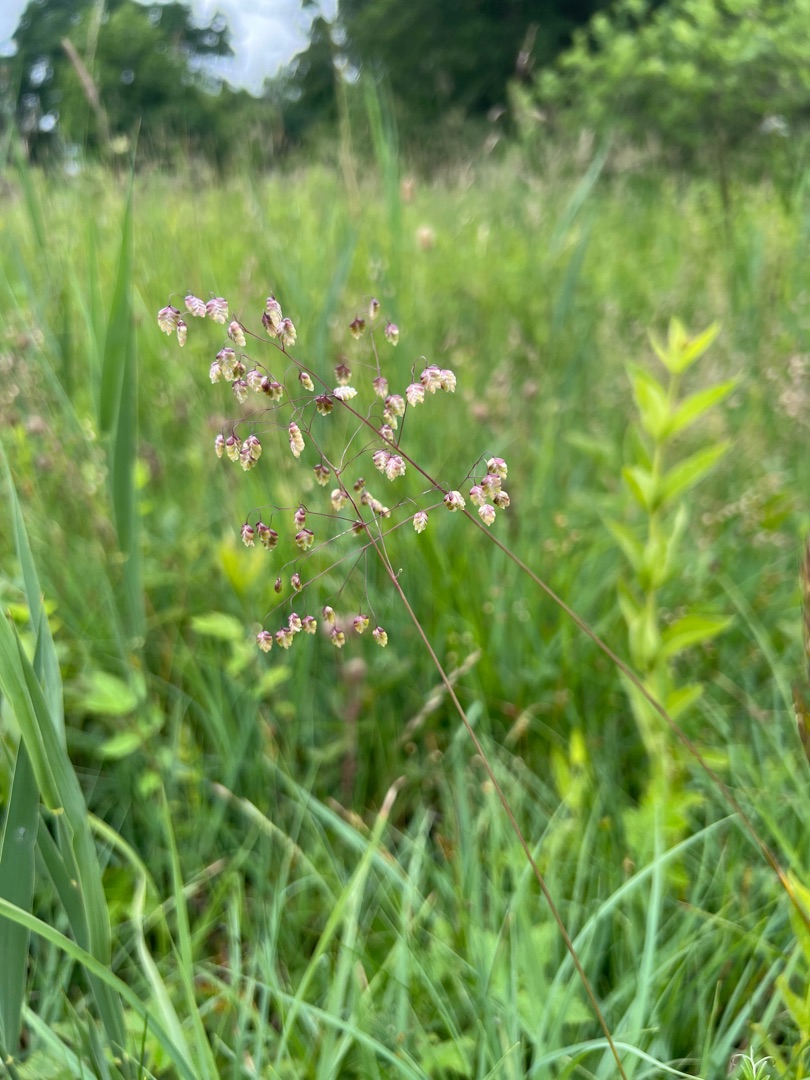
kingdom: Plantae
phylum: Tracheophyta
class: Liliopsida
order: Poales
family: Poaceae
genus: Briza
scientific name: Briza media
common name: Hjertegræs
